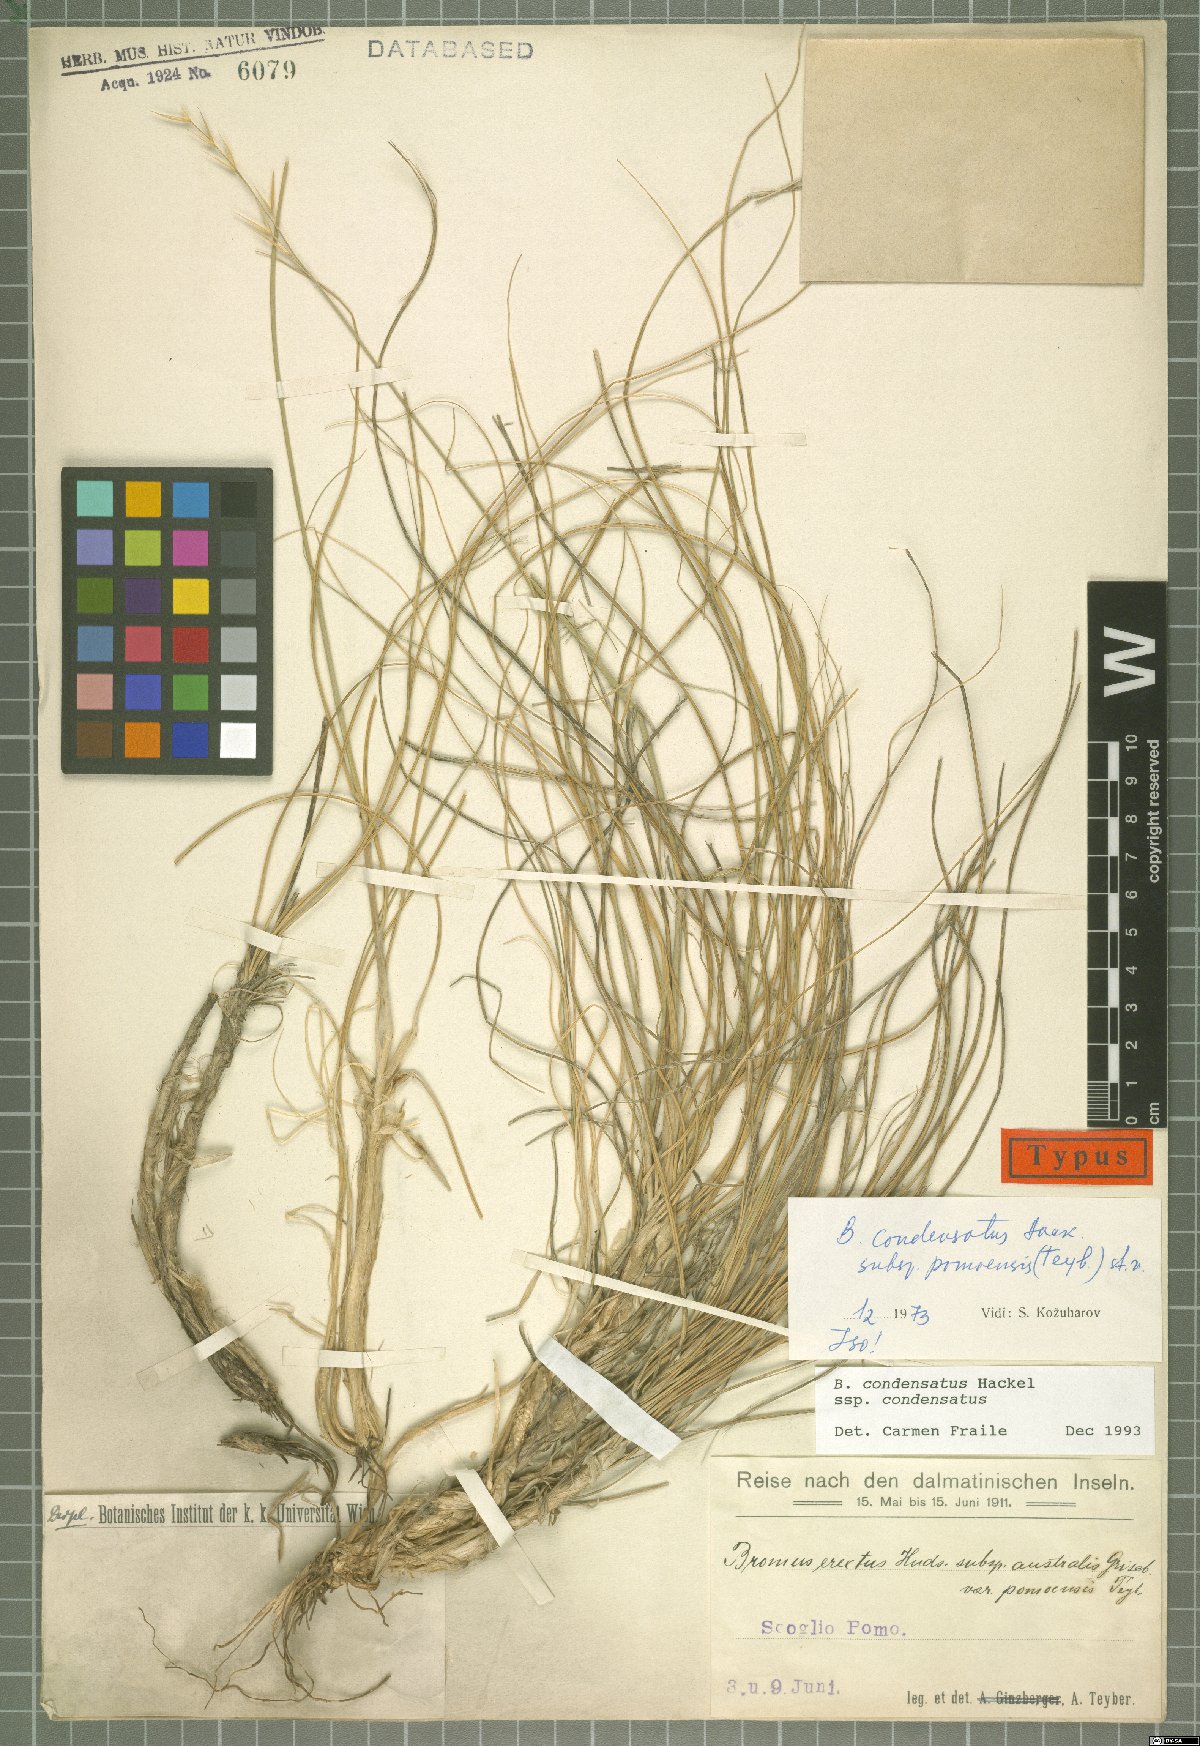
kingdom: Plantae
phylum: Tracheophyta
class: Liliopsida
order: Poales
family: Poaceae
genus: Bromus
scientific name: Bromus condensatus
